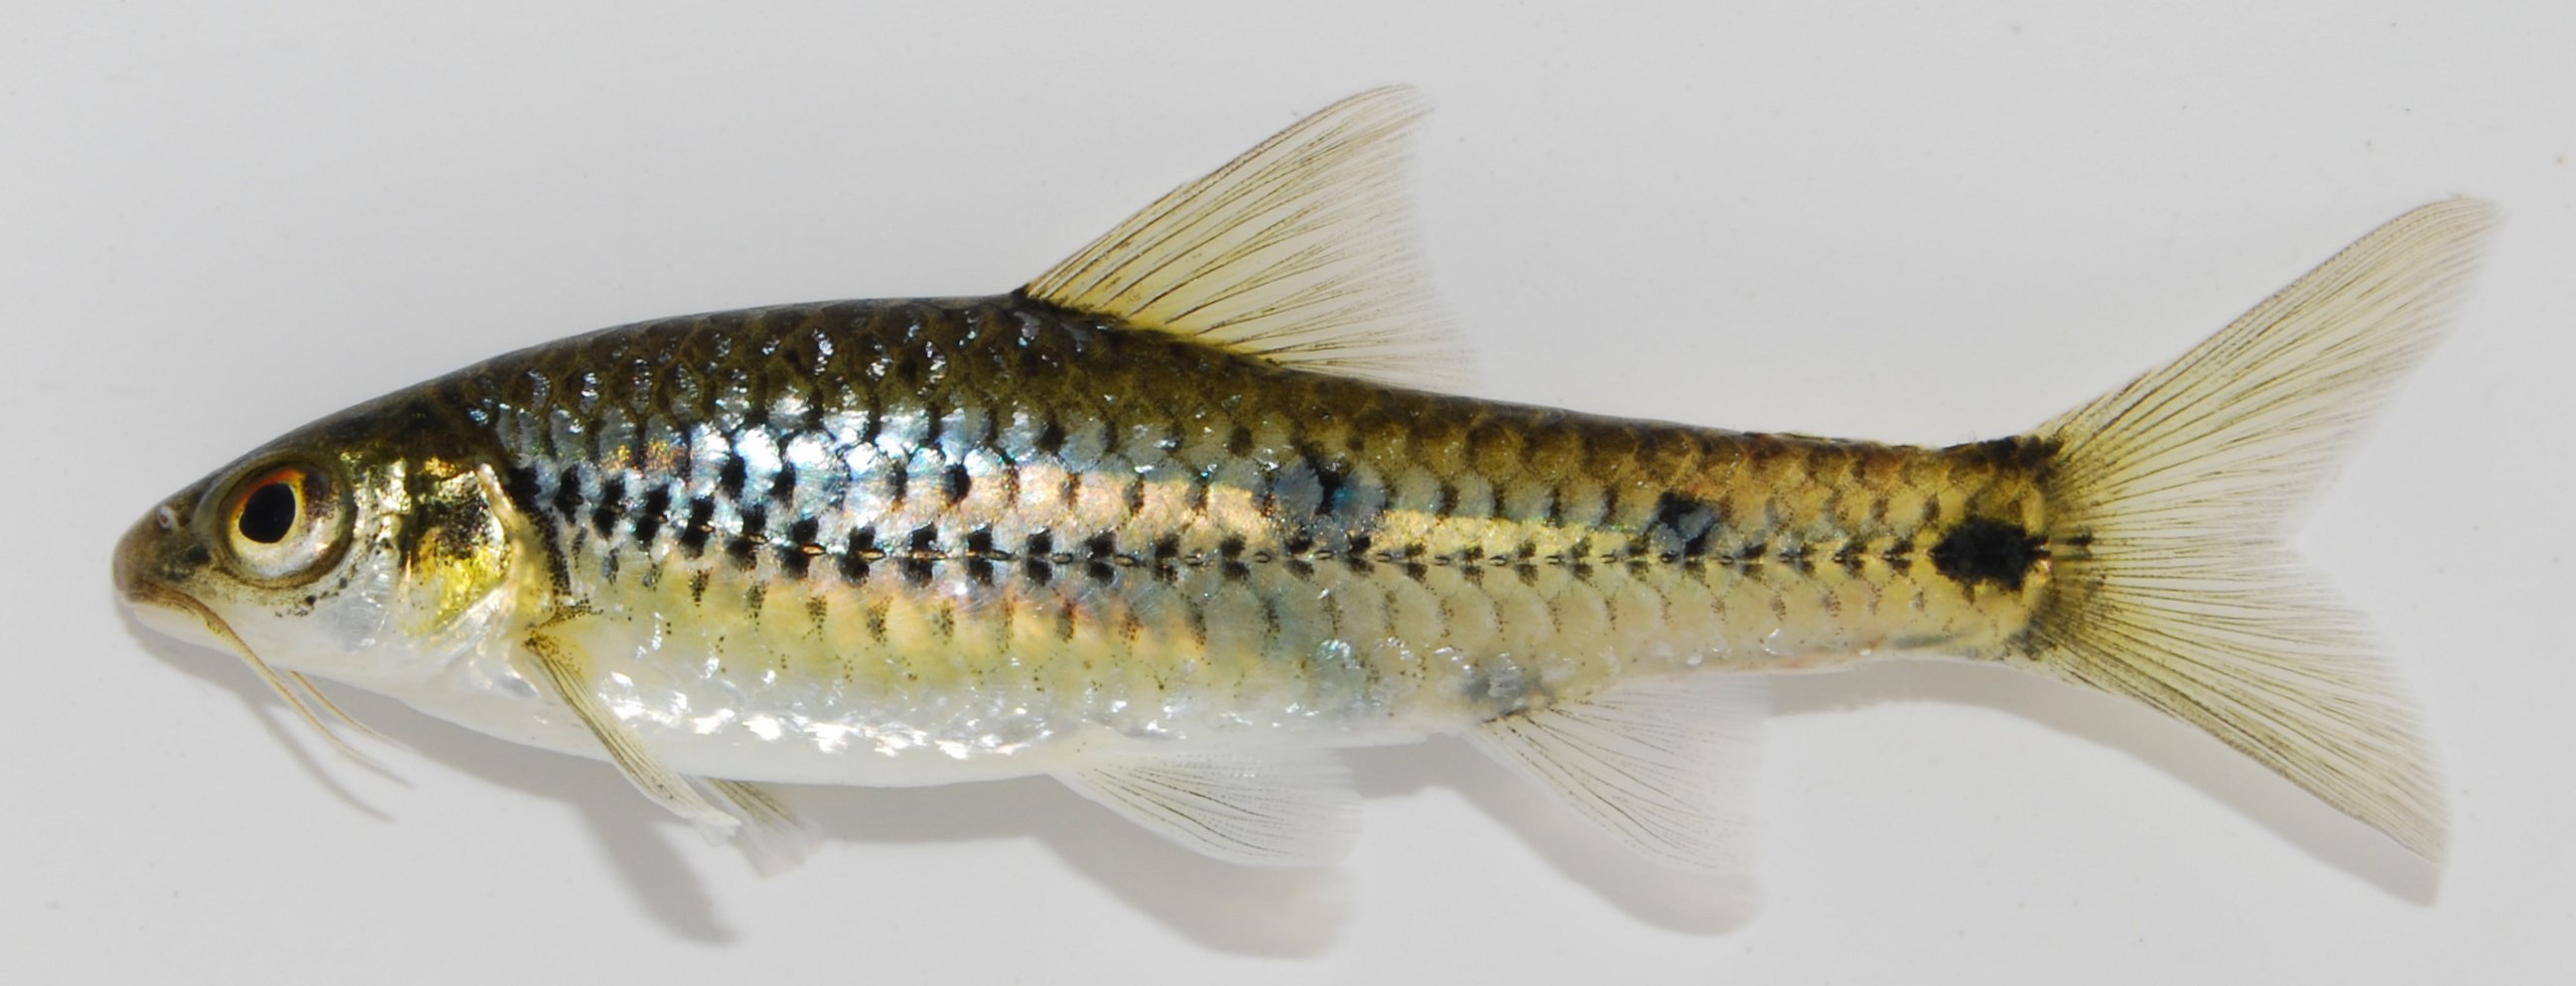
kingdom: Animalia
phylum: Chordata
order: Cypriniformes
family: Cyprinidae
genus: Enteromius
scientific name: Enteromius lineomaculatus
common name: Line-spotted barb
